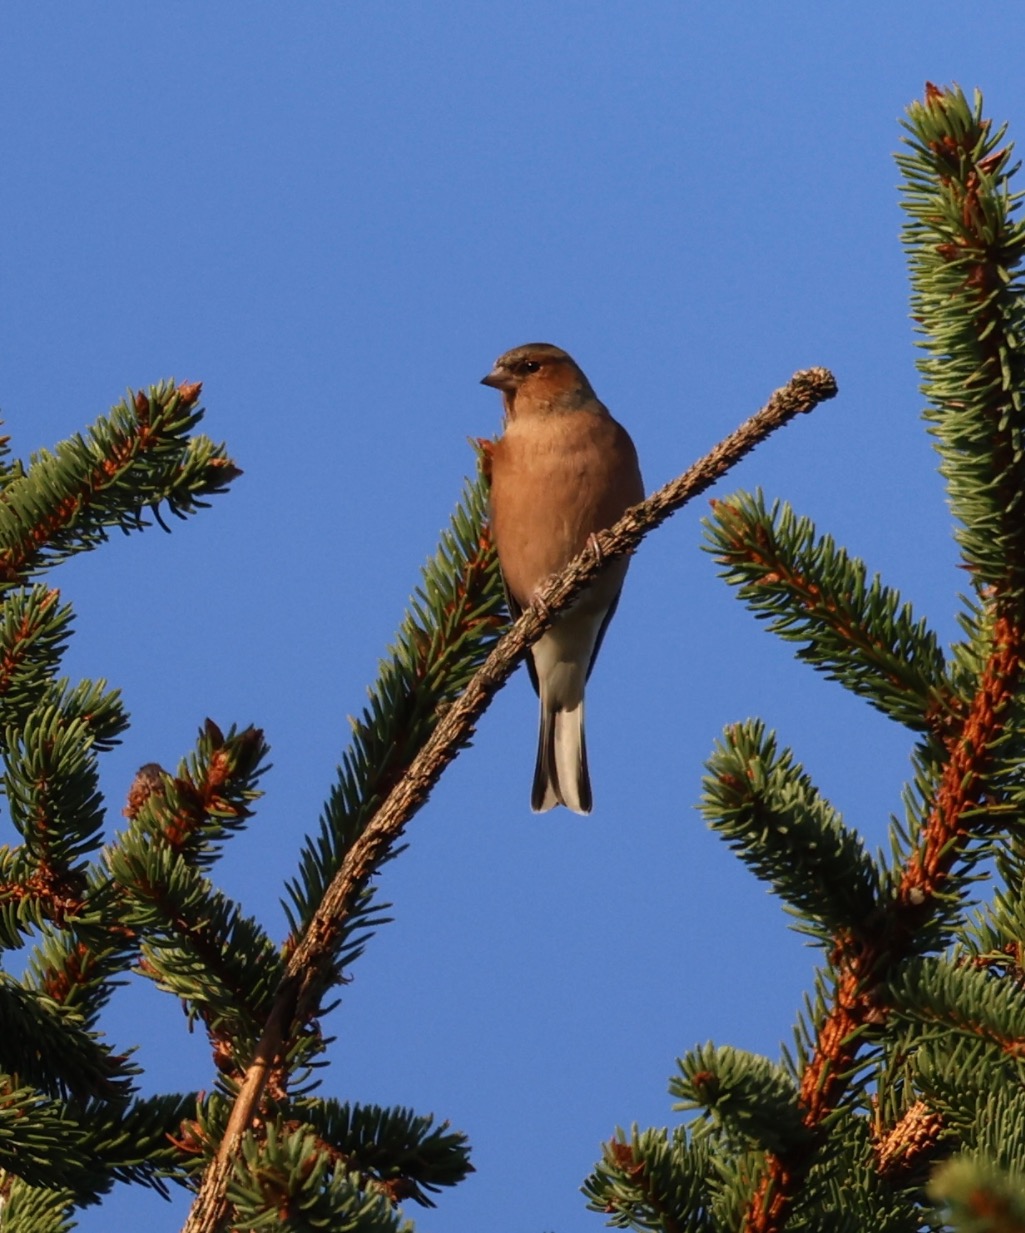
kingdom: Animalia
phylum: Chordata
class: Aves
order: Passeriformes
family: Fringillidae
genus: Fringilla
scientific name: Fringilla coelebs
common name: Bogfinke
